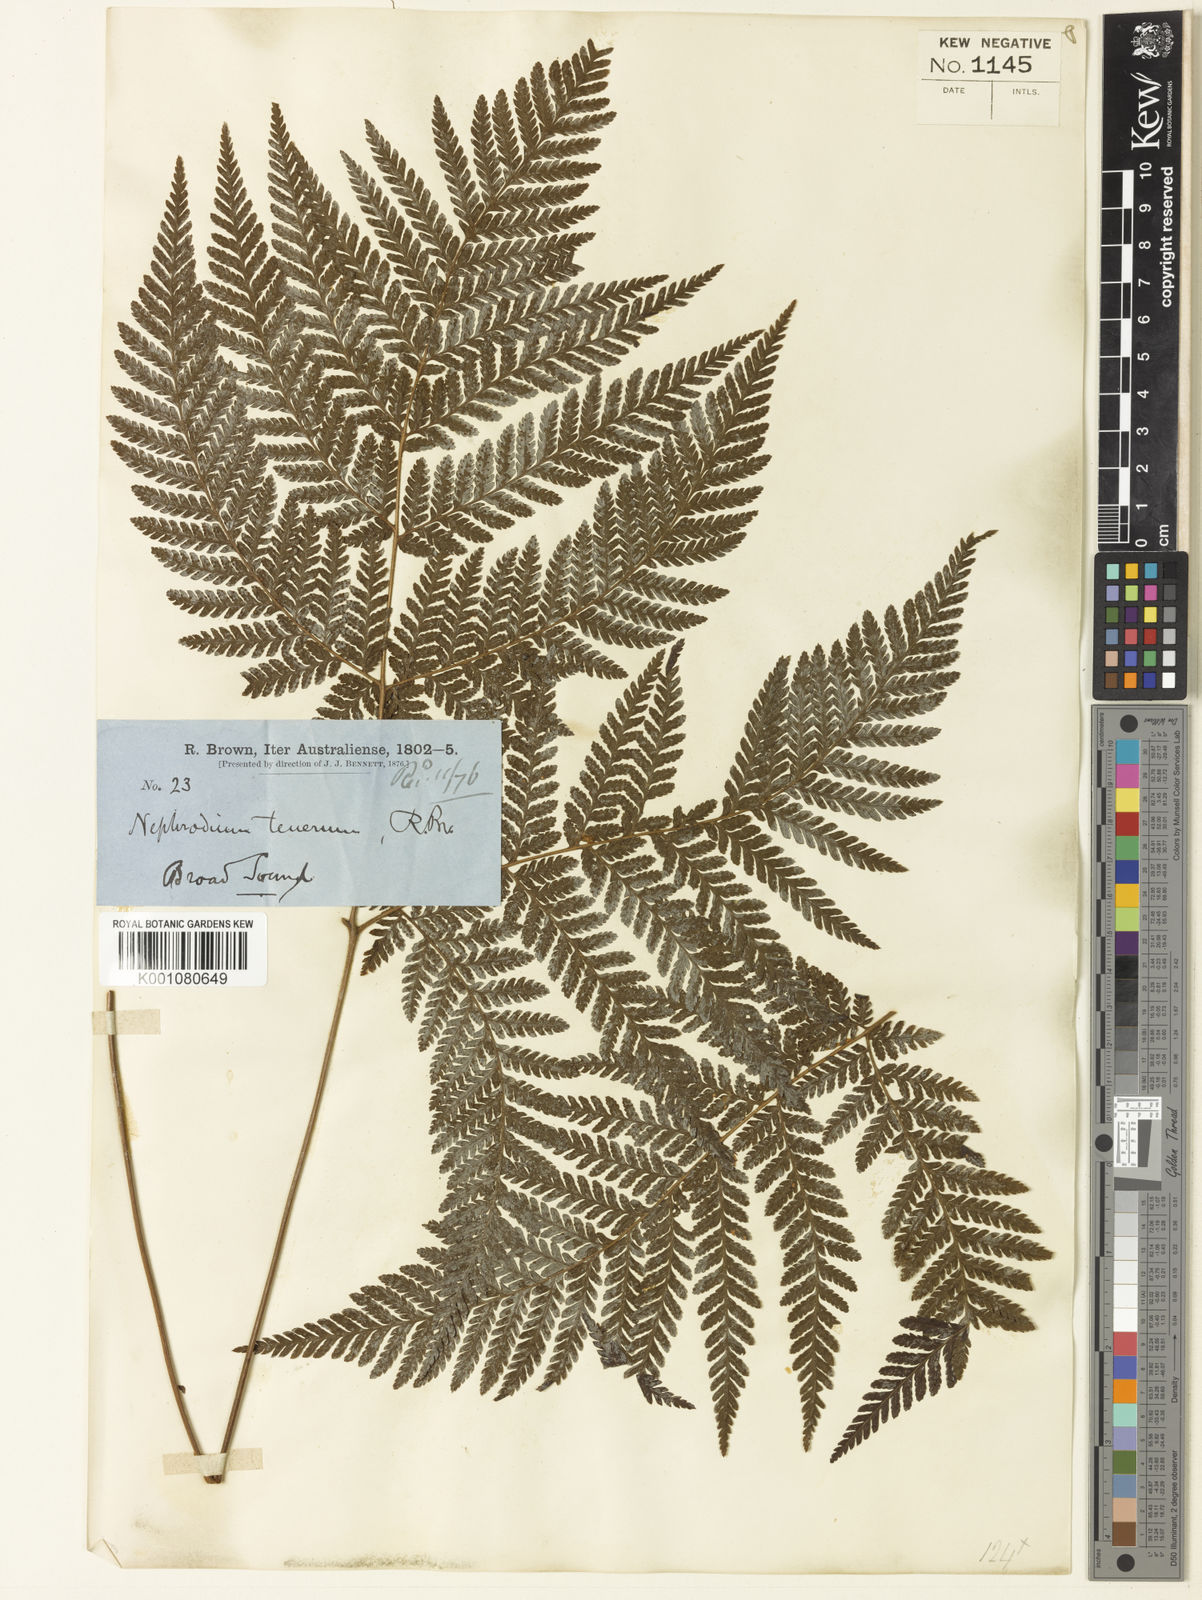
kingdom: Plantae
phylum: Tracheophyta
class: Polypodiopsida
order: Polypodiales
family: Dryopteridaceae
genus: Lastreopsis
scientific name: Lastreopsis tenera
